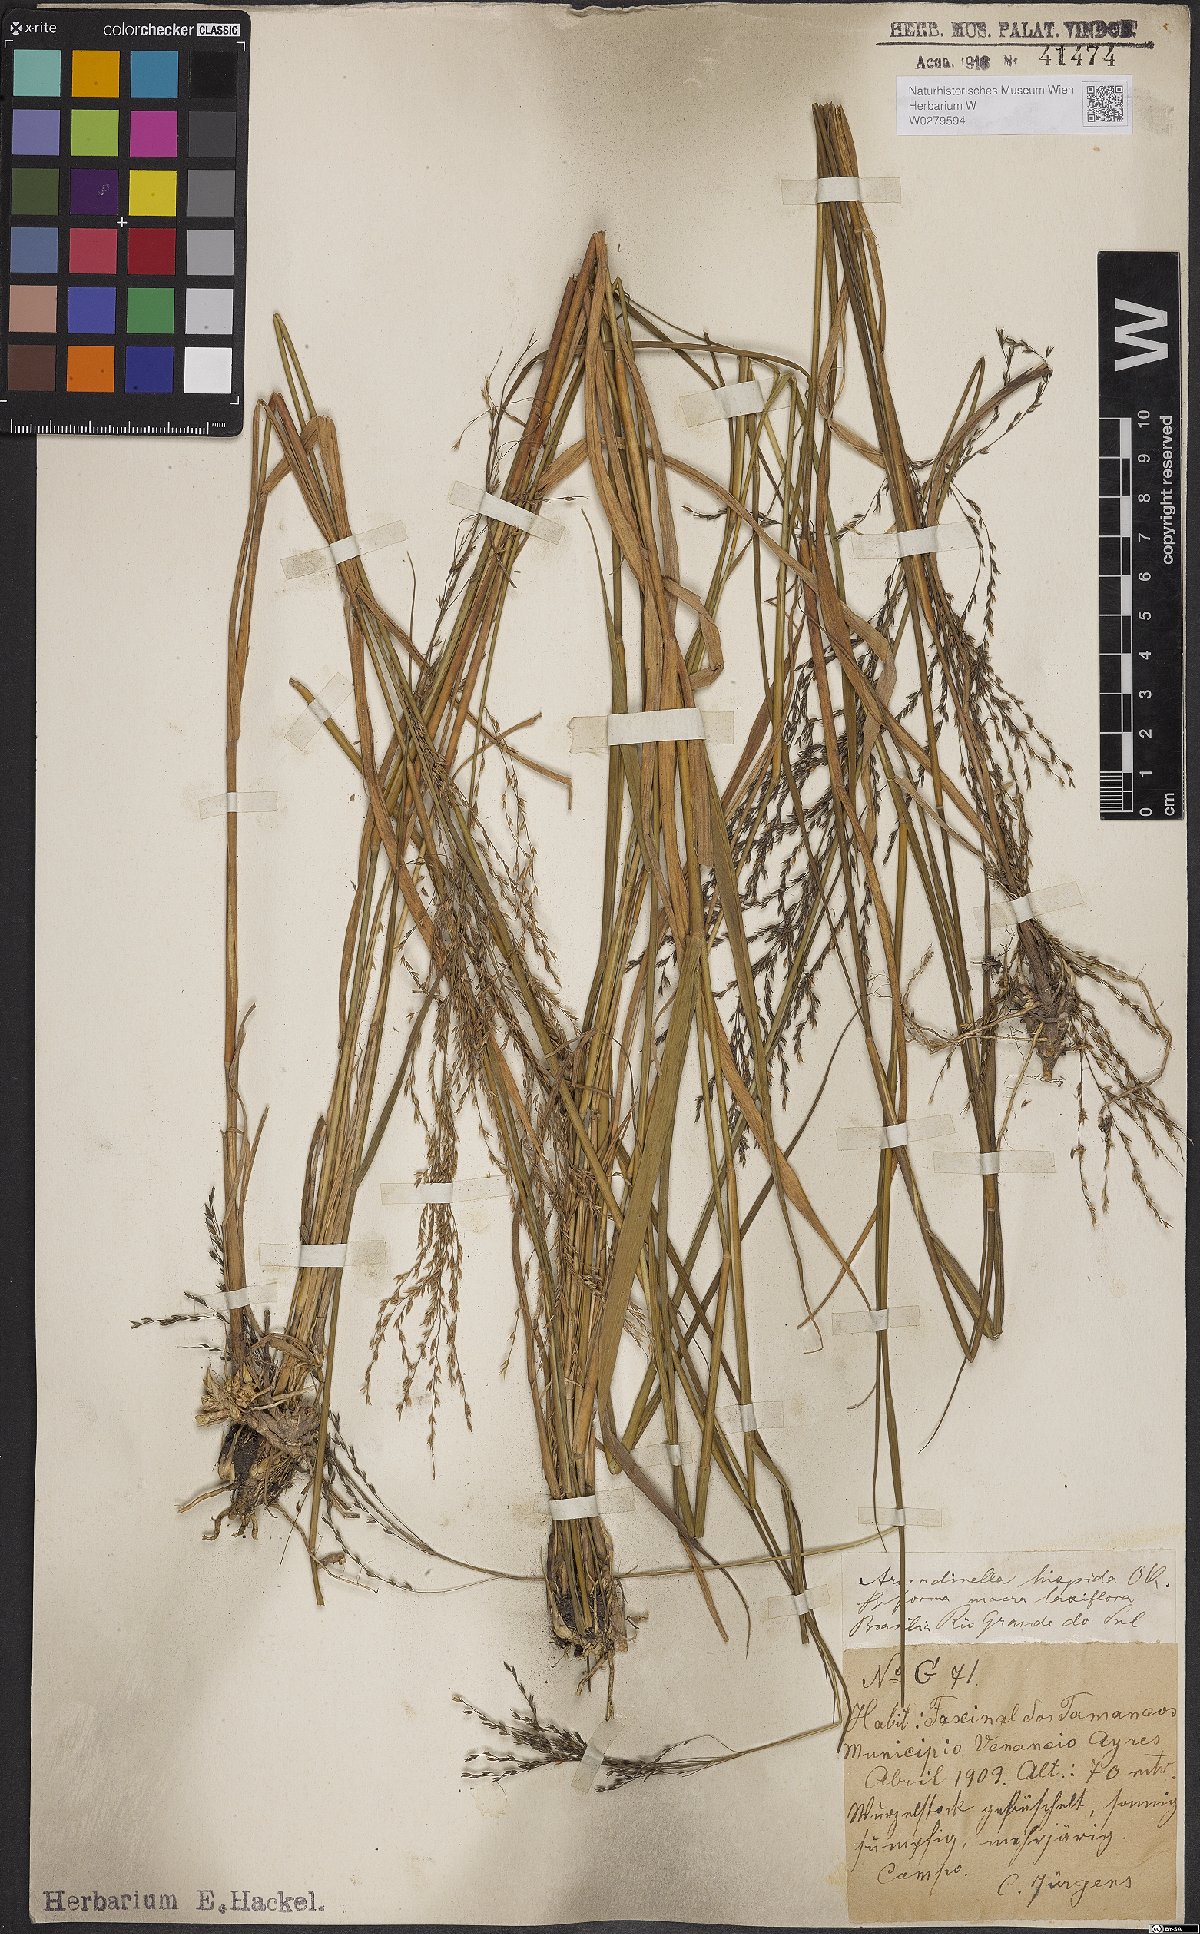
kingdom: Plantae
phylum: Tracheophyta
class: Liliopsida
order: Poales
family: Poaceae
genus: Arundinella
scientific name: Arundinella hispida
